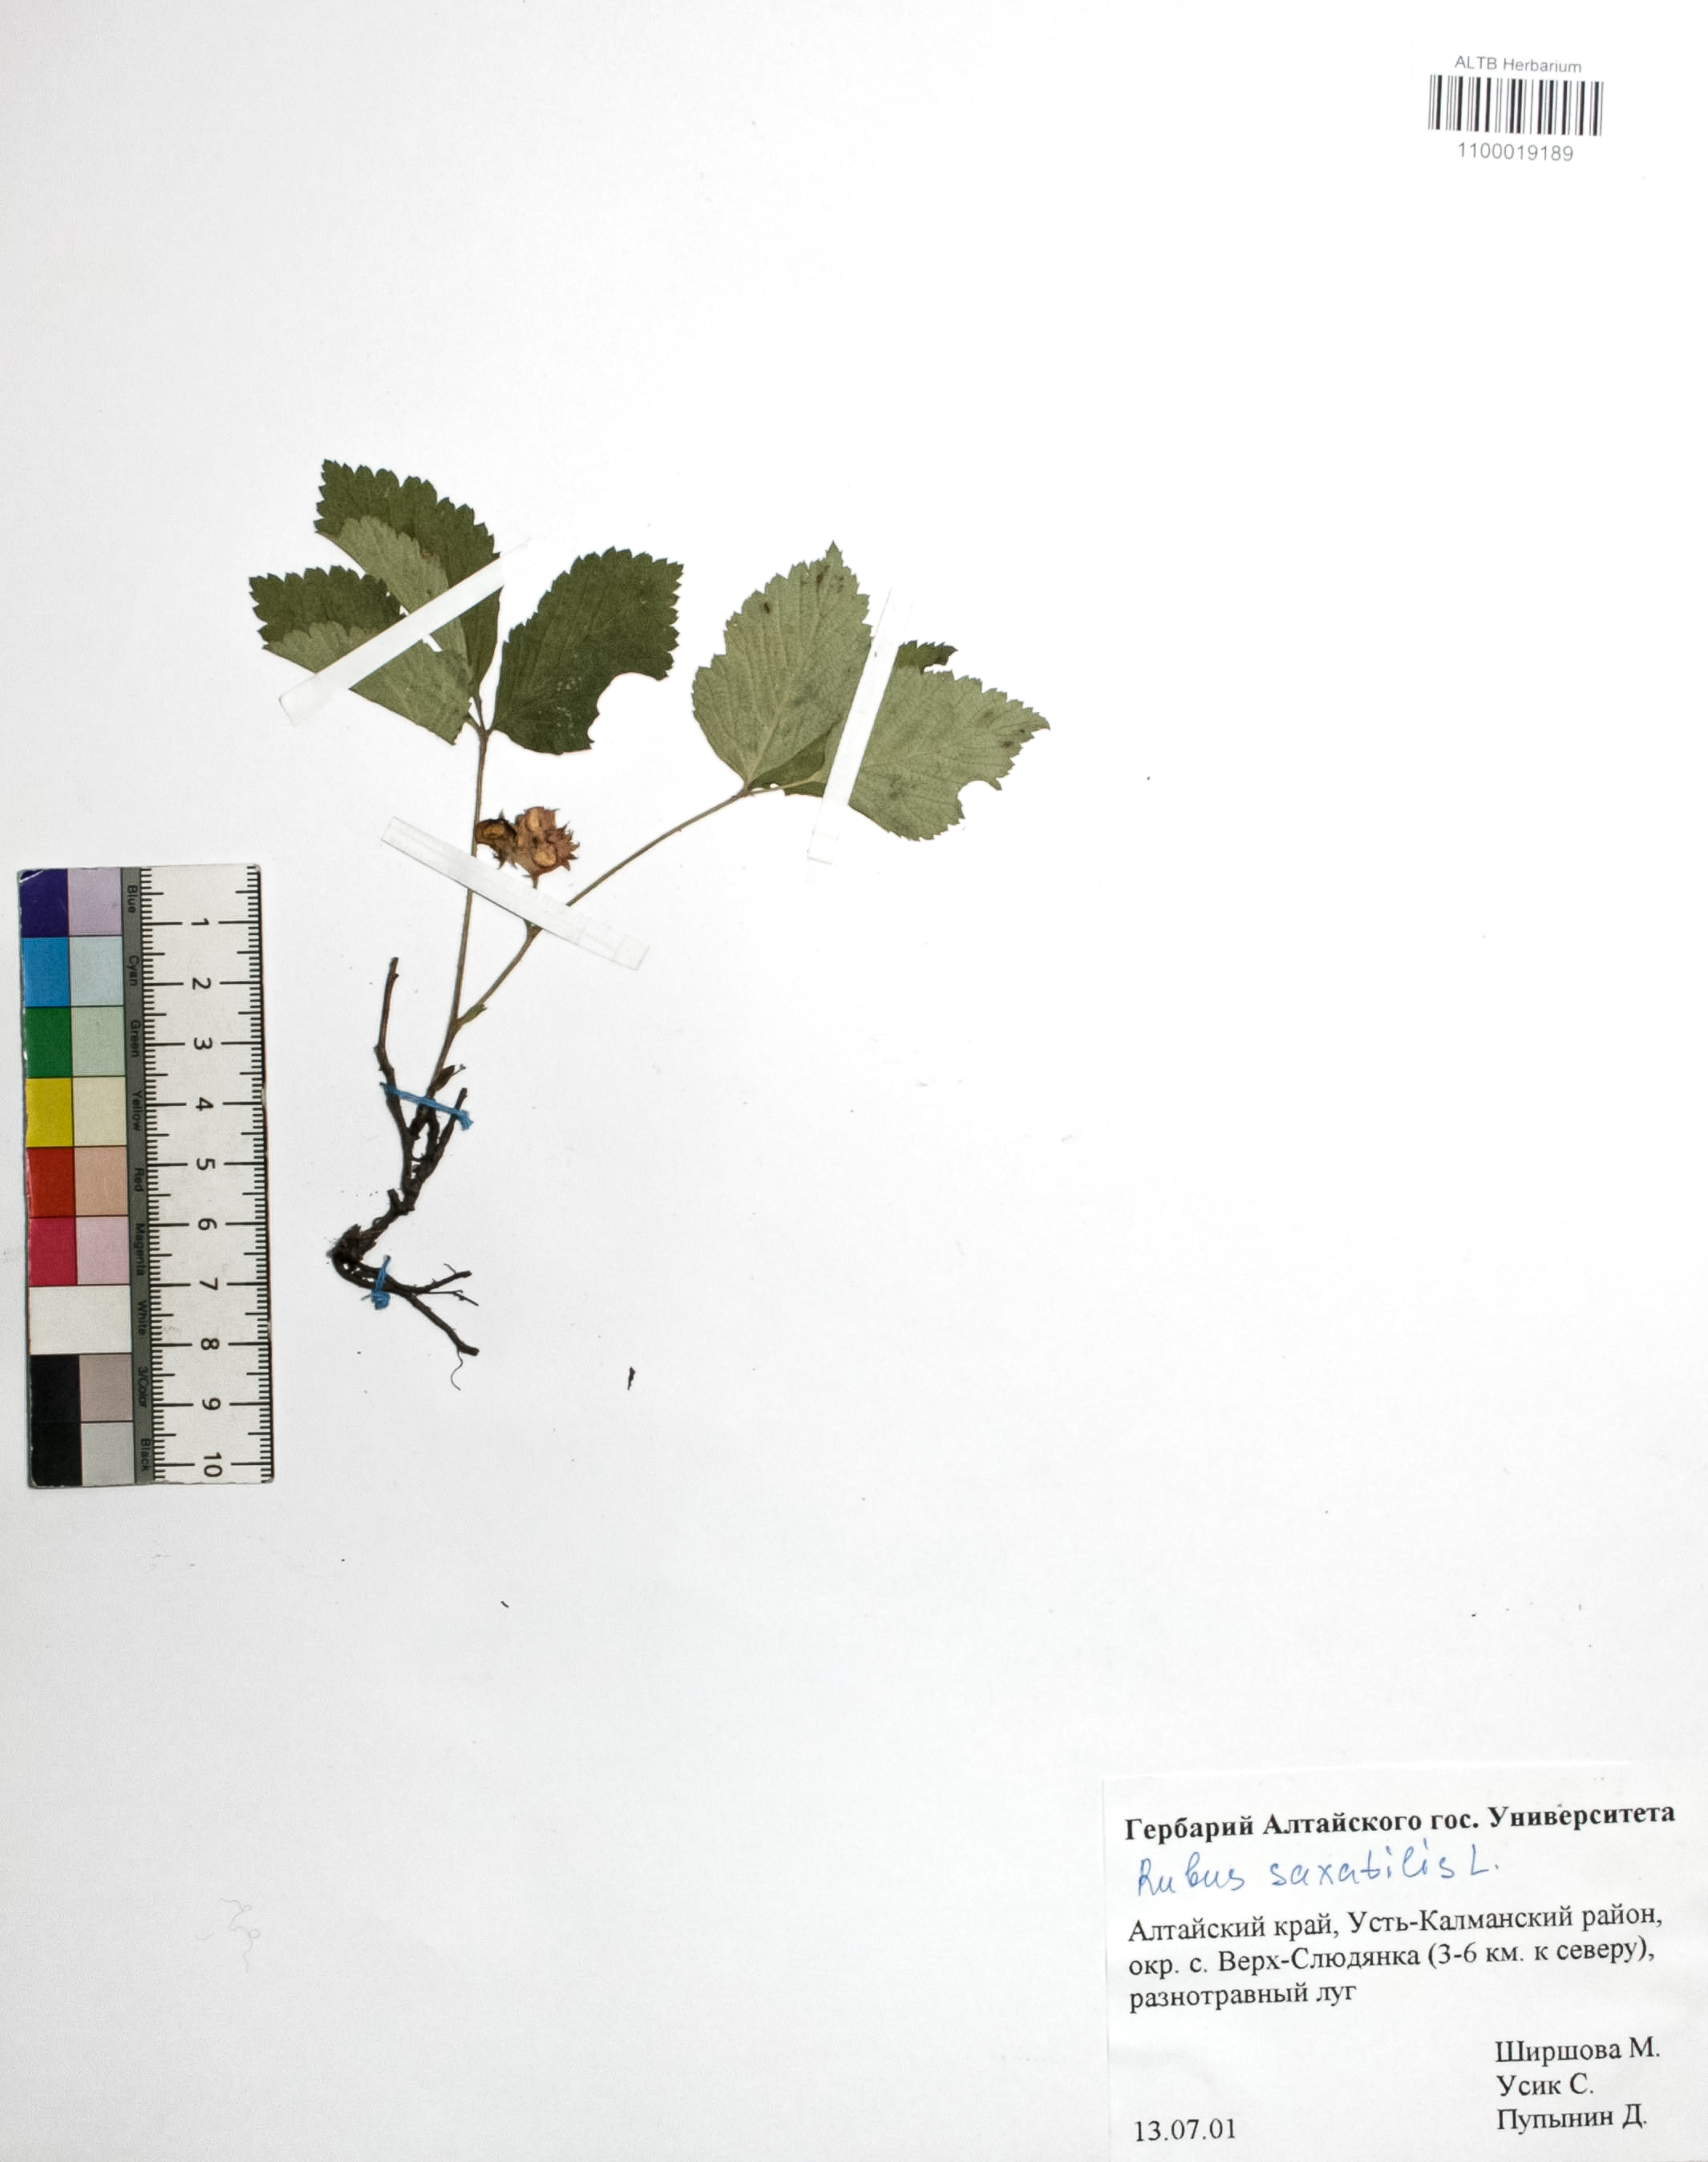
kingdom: Plantae
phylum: Tracheophyta
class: Magnoliopsida
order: Rosales
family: Rosaceae
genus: Rubus
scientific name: Rubus saxatilis
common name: Stone bramble
